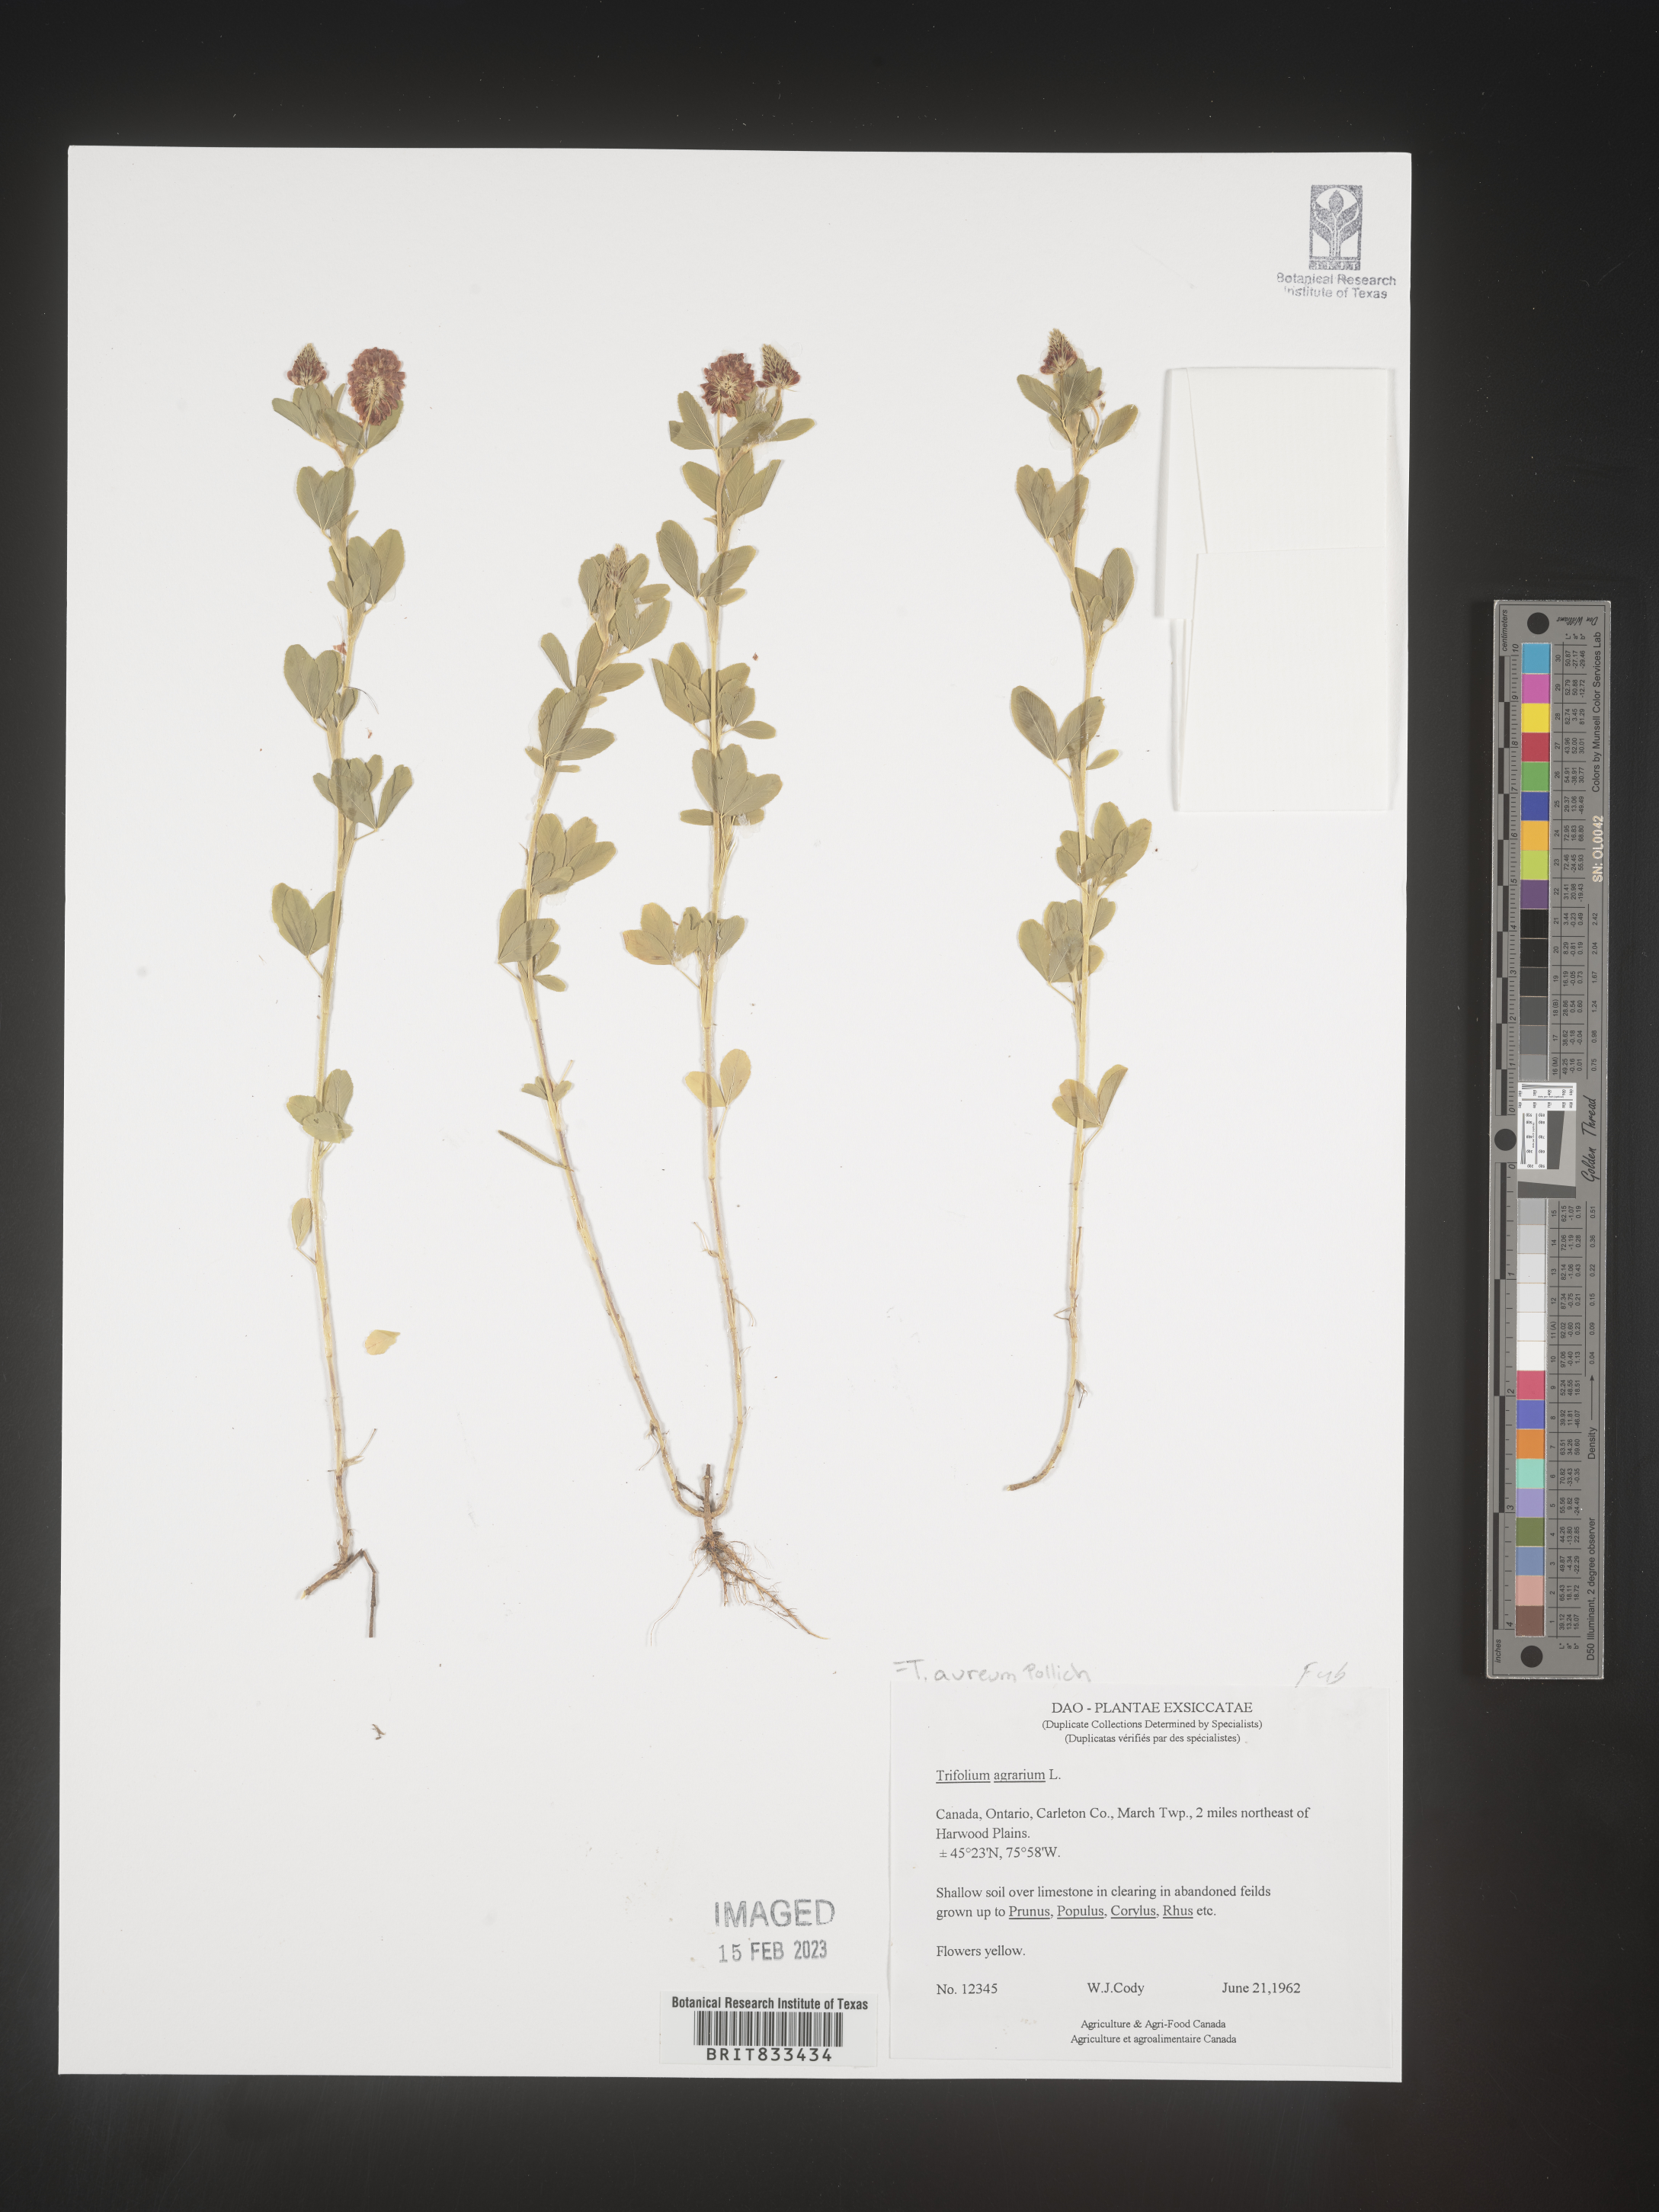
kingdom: Plantae
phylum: Tracheophyta
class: Magnoliopsida
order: Fabales
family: Fabaceae
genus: Trifolium
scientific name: Trifolium
